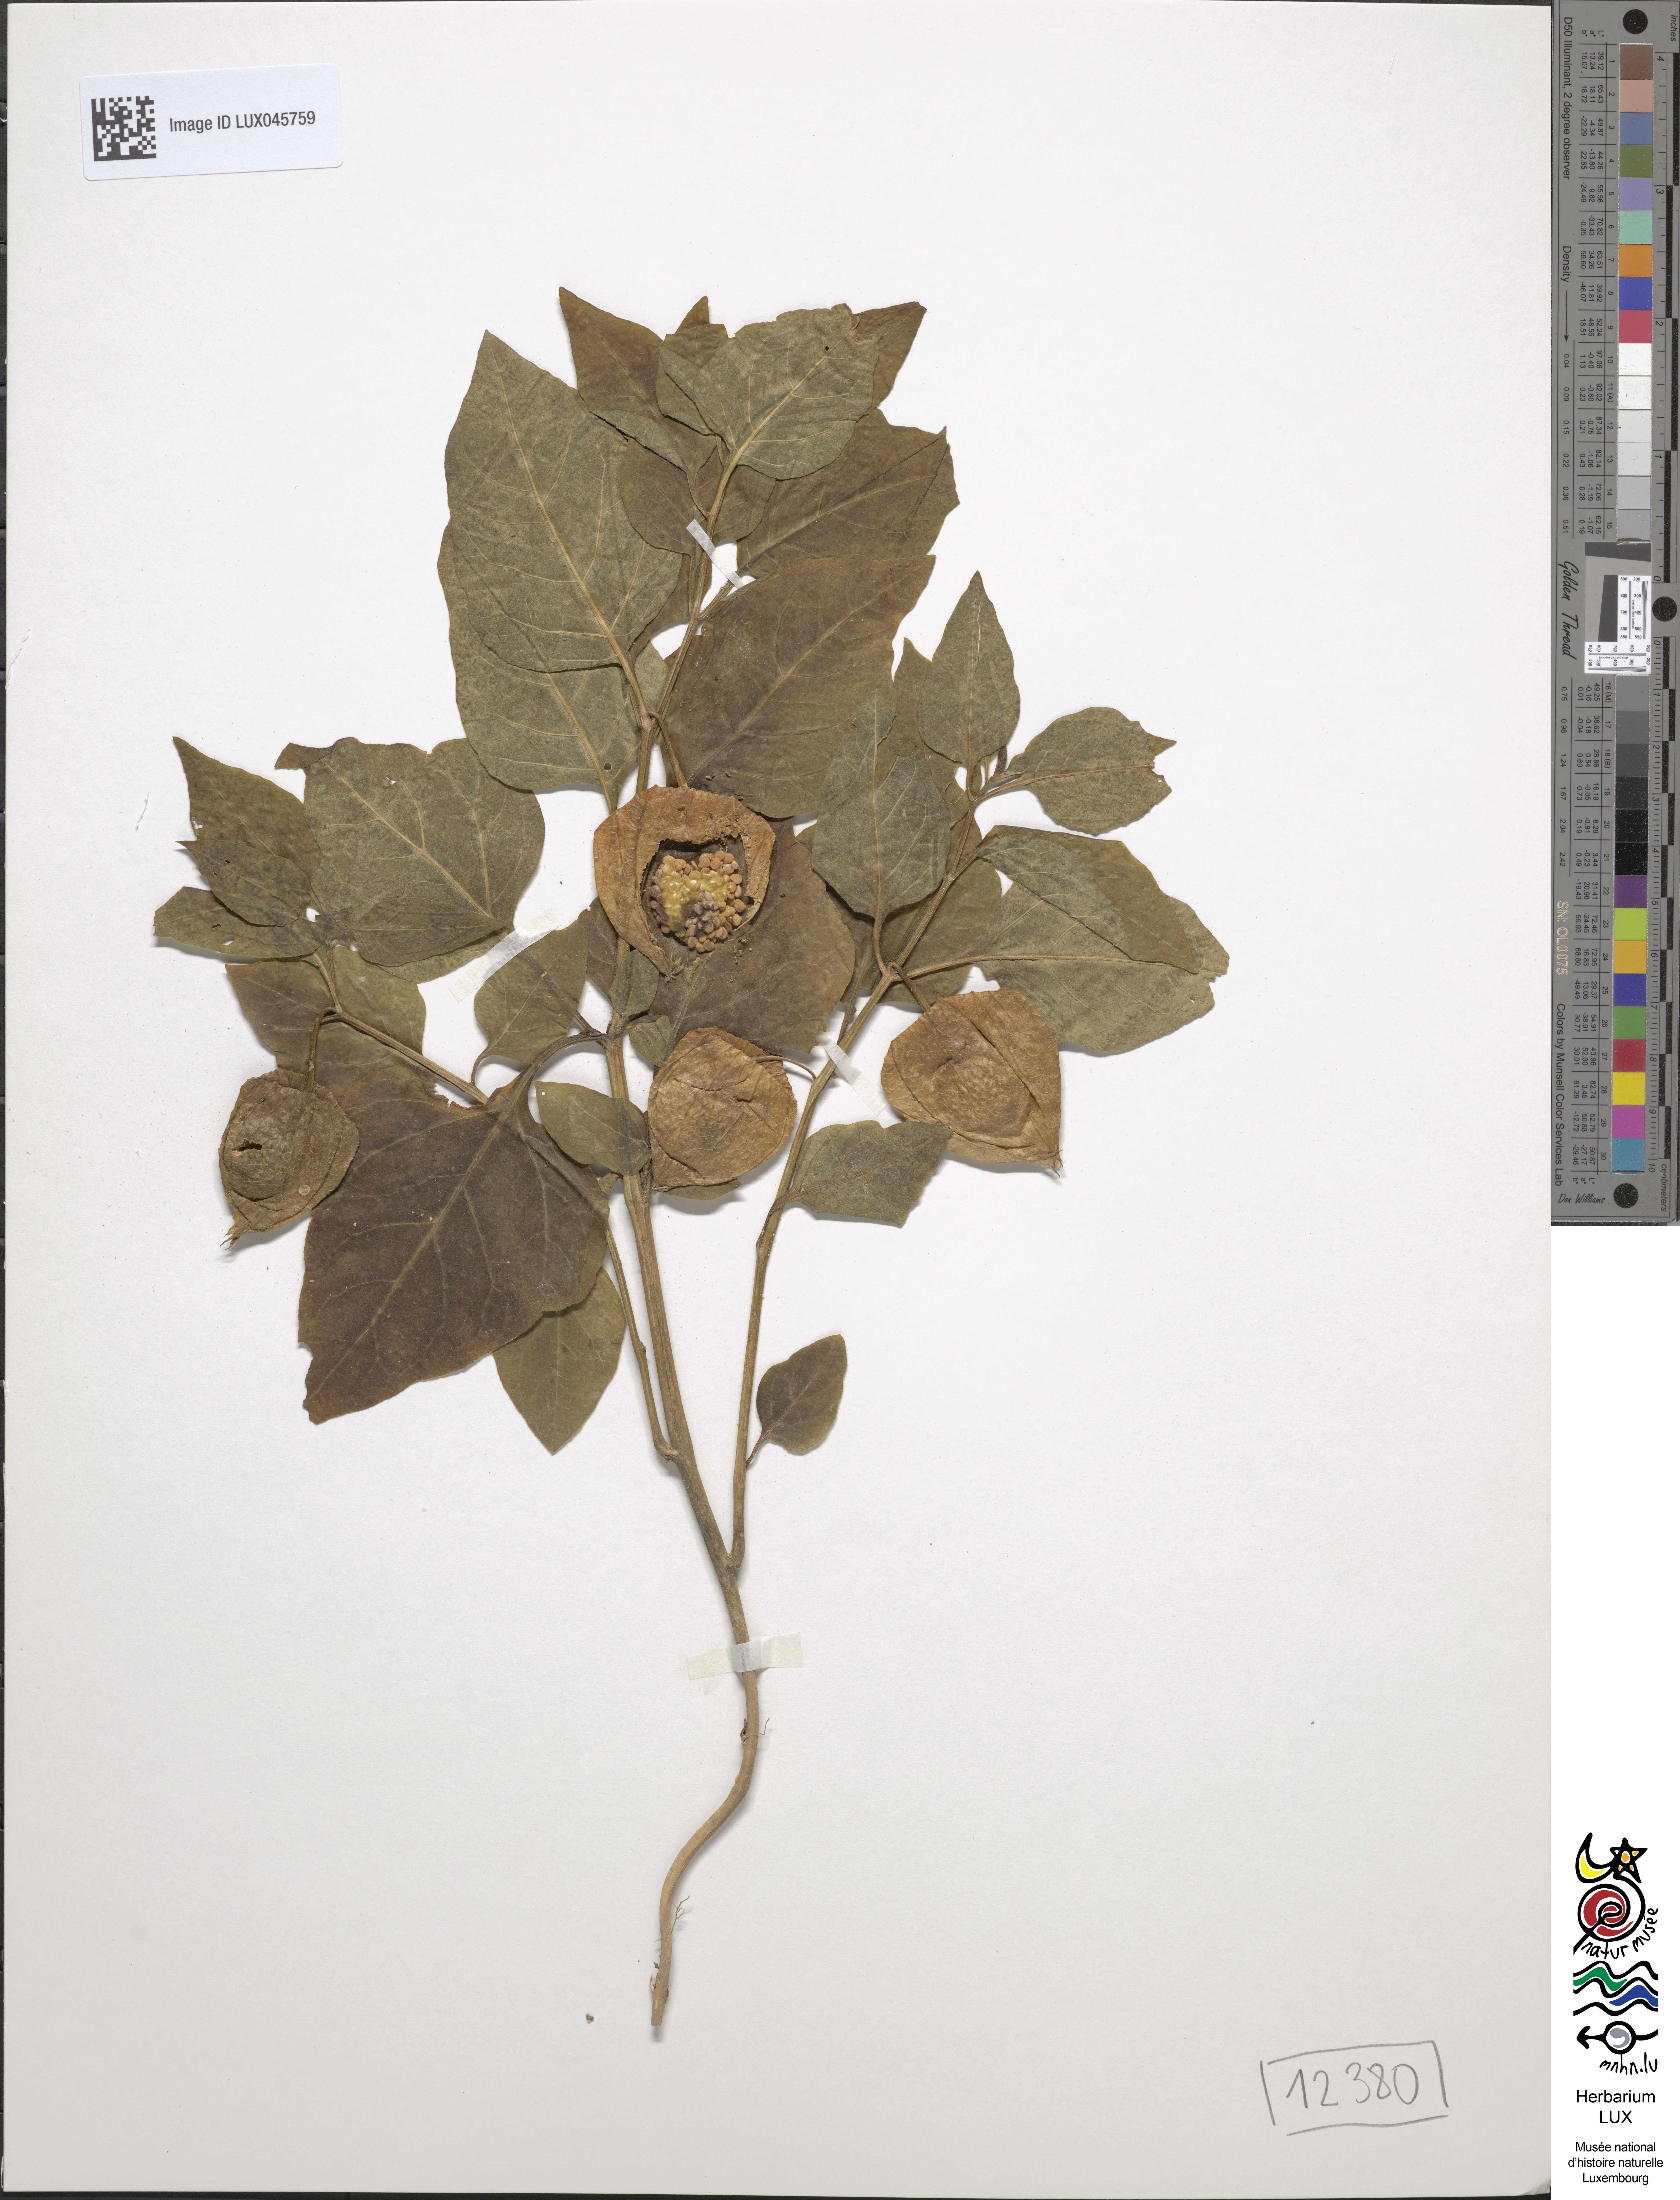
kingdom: Plantae
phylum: Tracheophyta
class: Magnoliopsida
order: Solanales
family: Solanaceae
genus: Alkekengi
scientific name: Alkekengi officinarum
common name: Japanese-lantern
